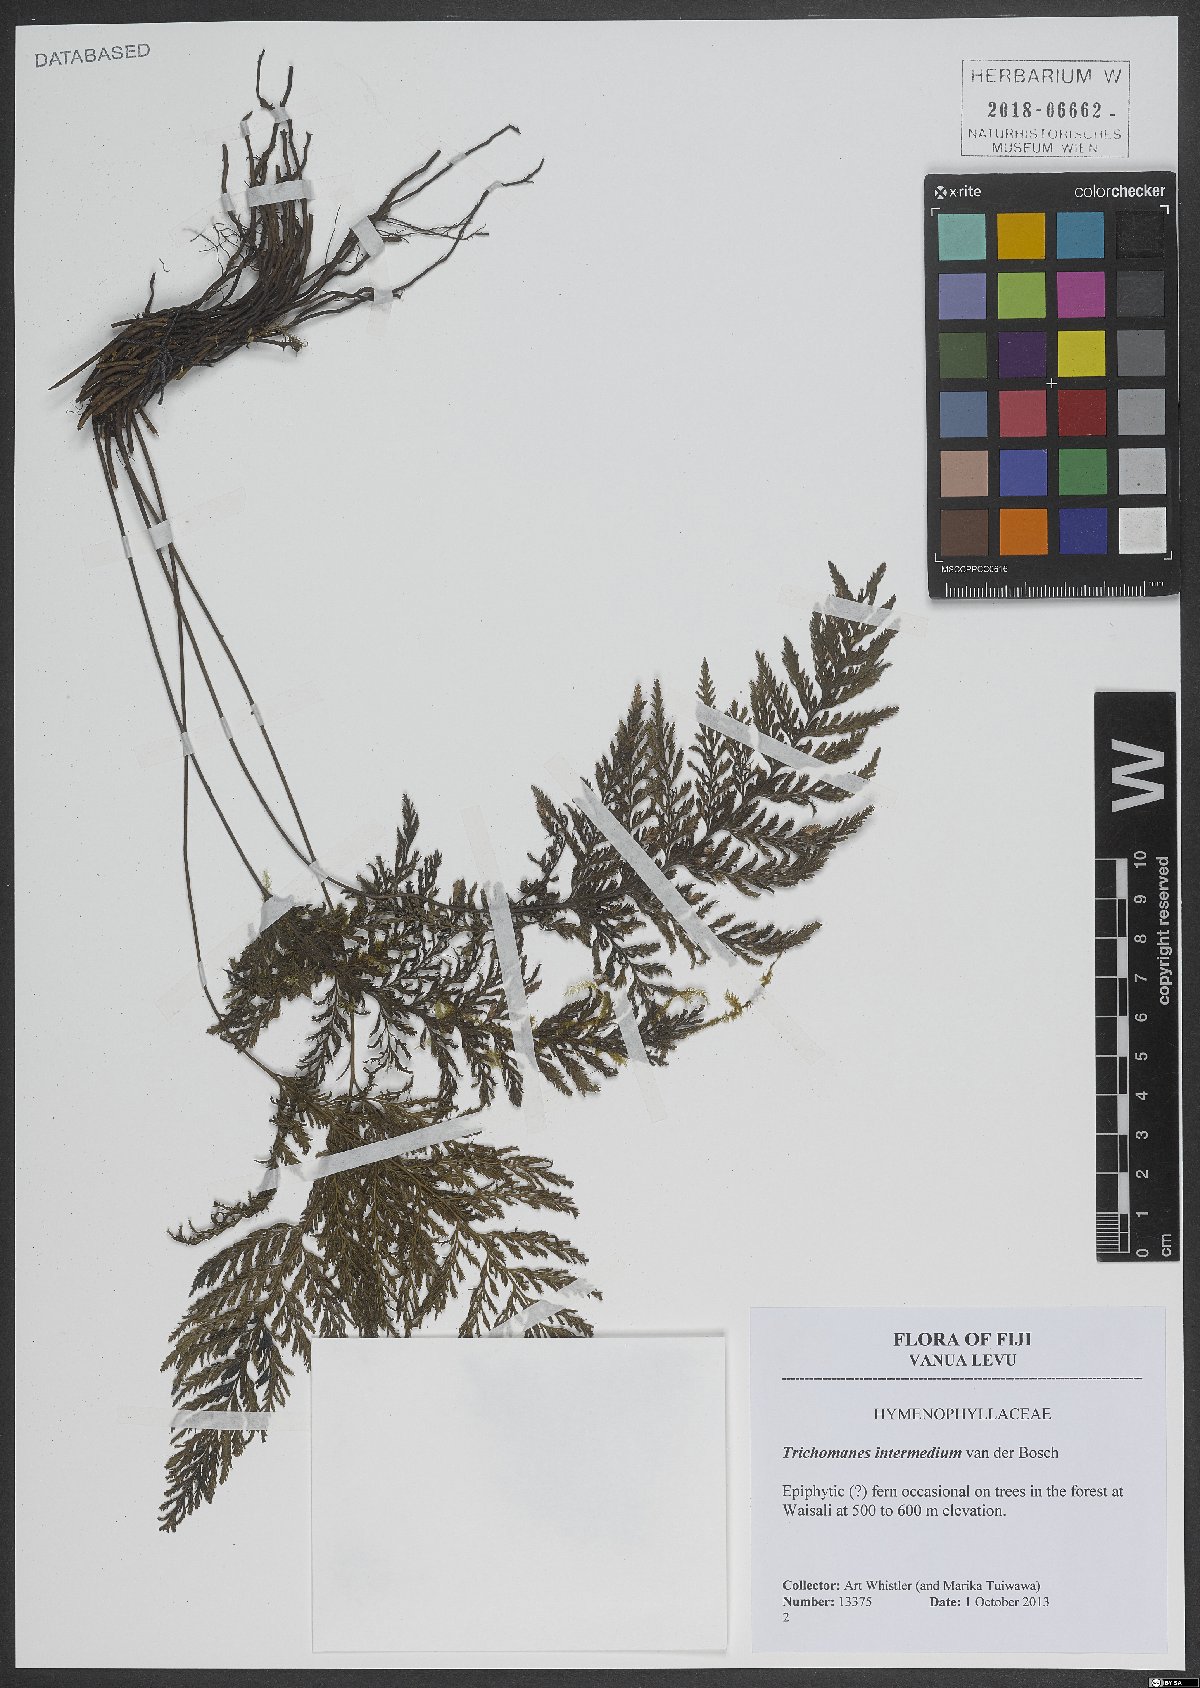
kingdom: Plantae
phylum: Tracheophyta
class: Polypodiopsida
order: Hymenophyllales
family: Hymenophyllaceae
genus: Crepidomanes
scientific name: Crepidomanes intermedium
